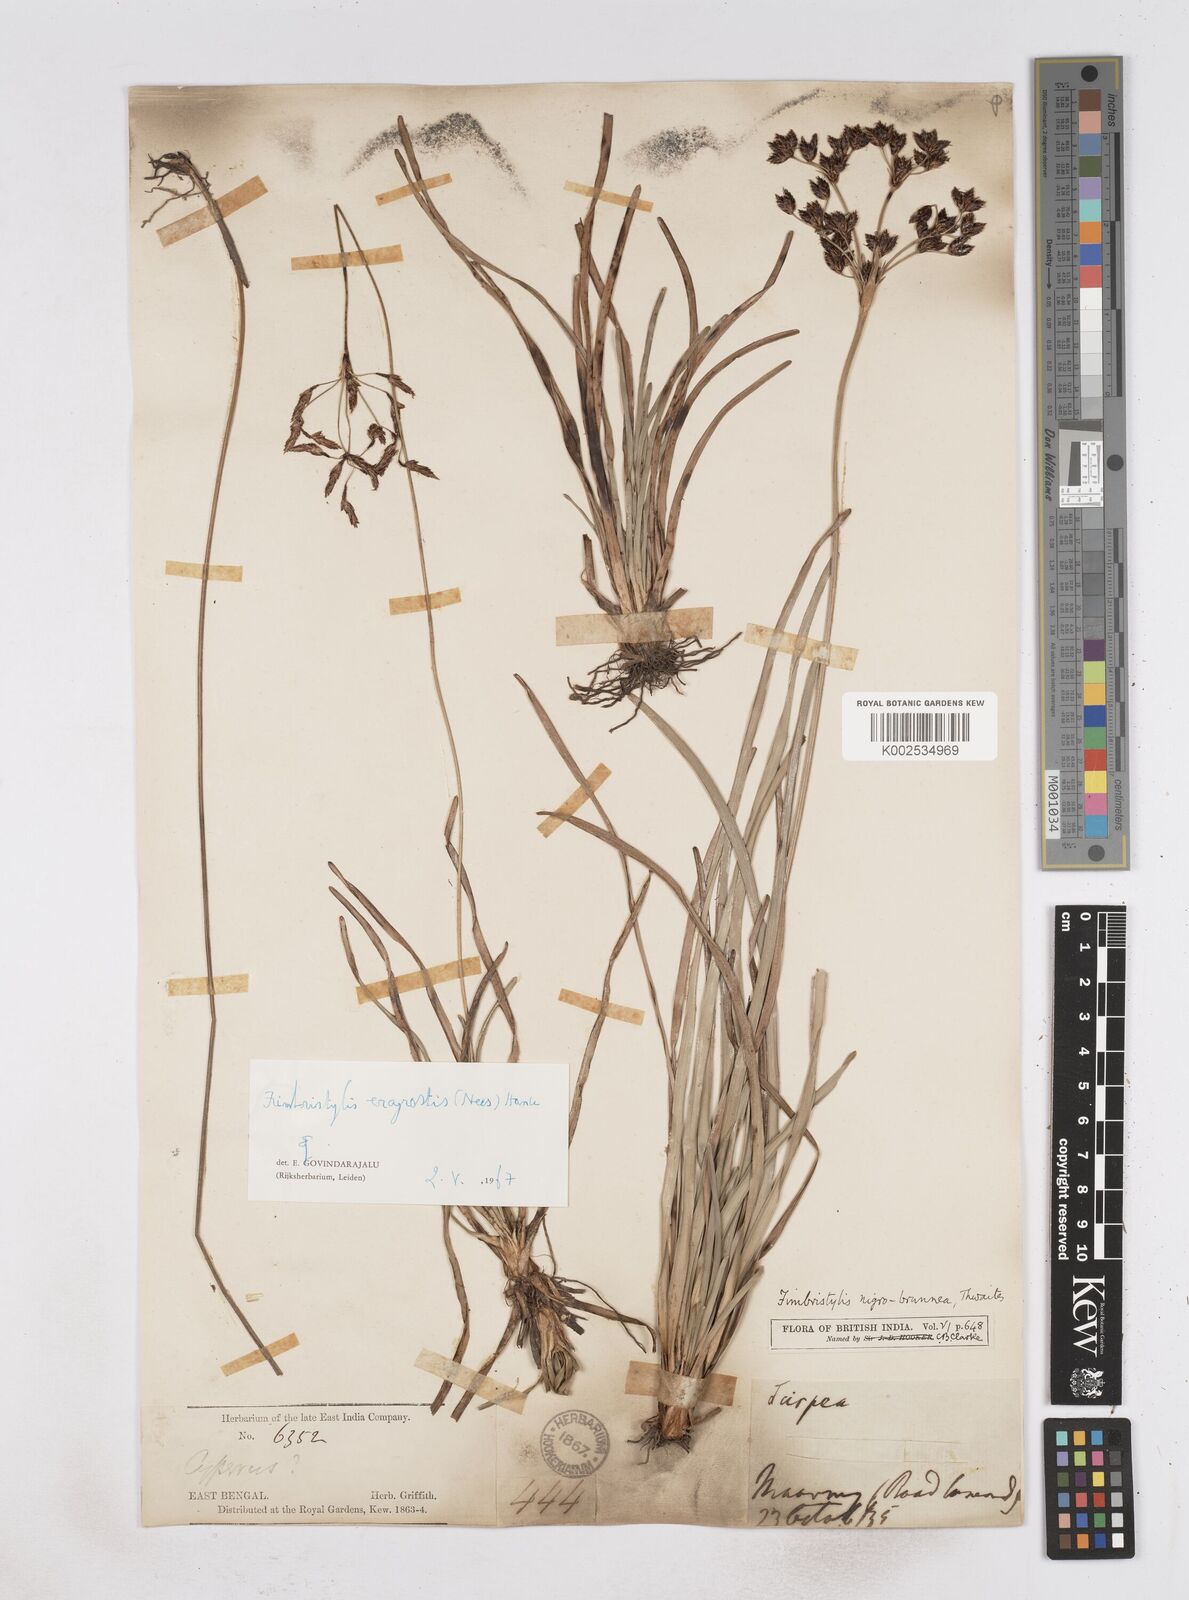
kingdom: Plantae
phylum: Tracheophyta
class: Liliopsida
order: Poales
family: Cyperaceae
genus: Fimbristylis
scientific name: Fimbristylis nigrobrunnea
